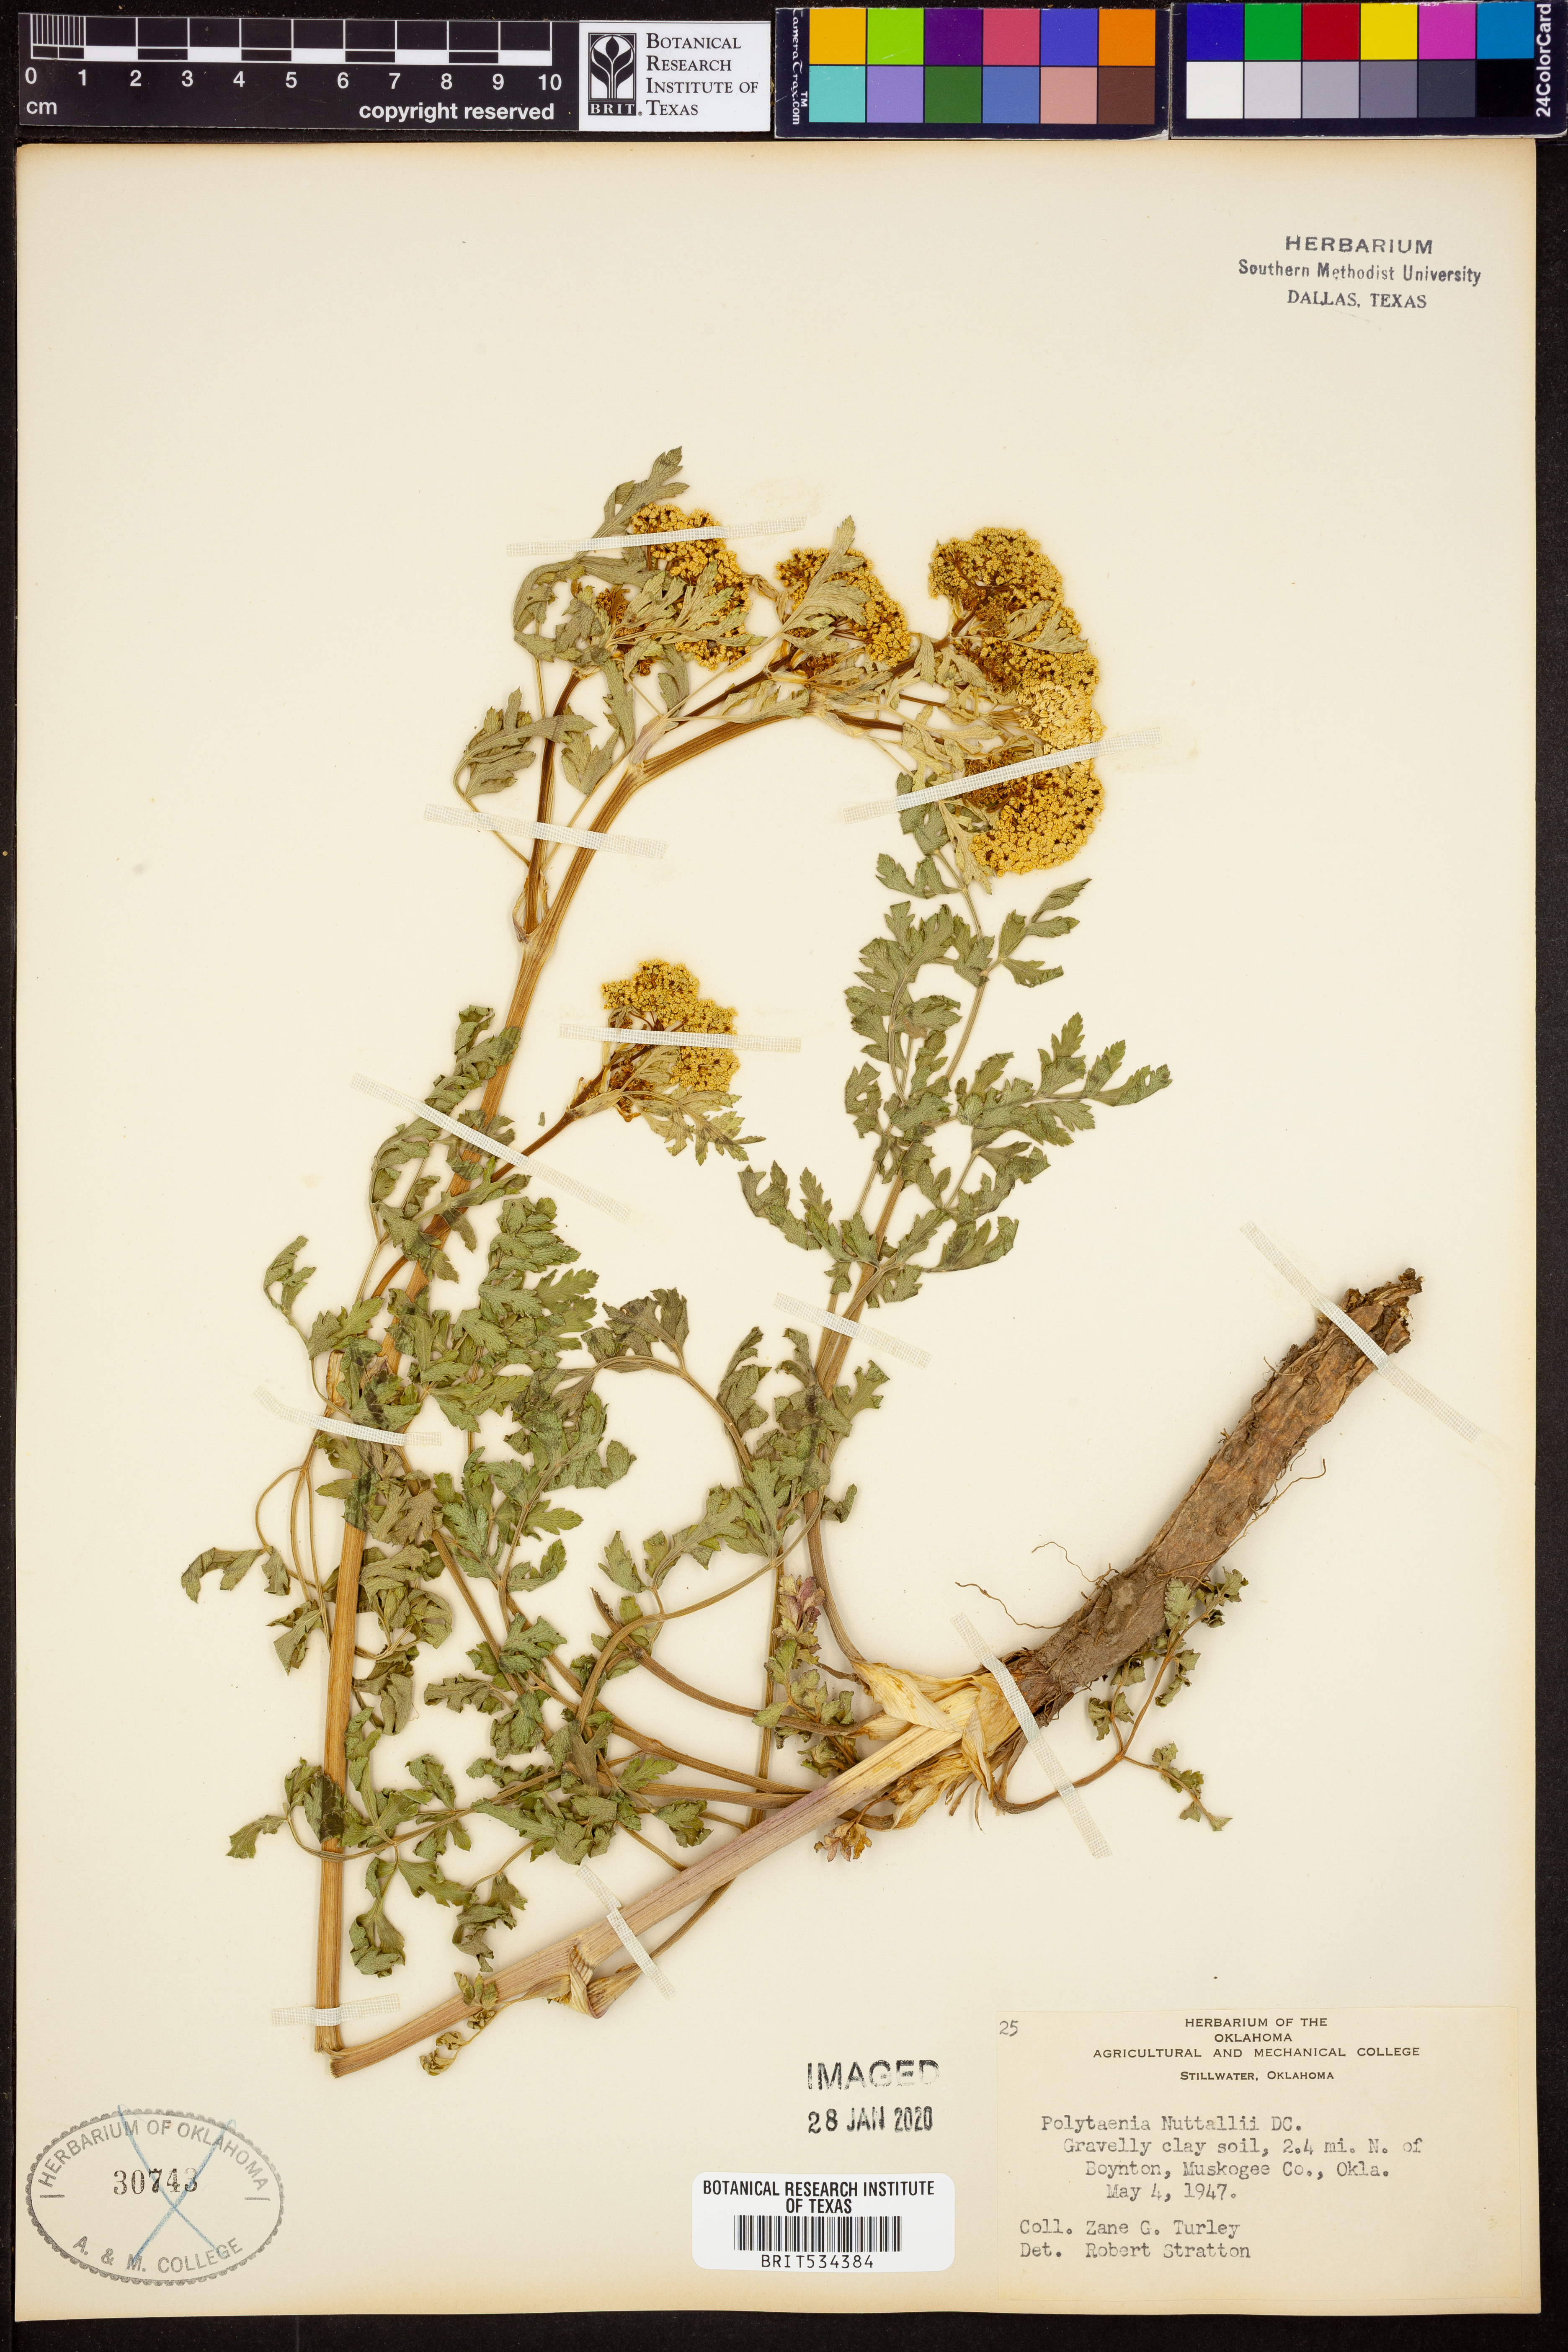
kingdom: Plantae
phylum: Tracheophyta
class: Magnoliopsida
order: Apiales
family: Apiaceae
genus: Polytaenia
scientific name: Polytaenia nuttallii
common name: Prairie-parsley
